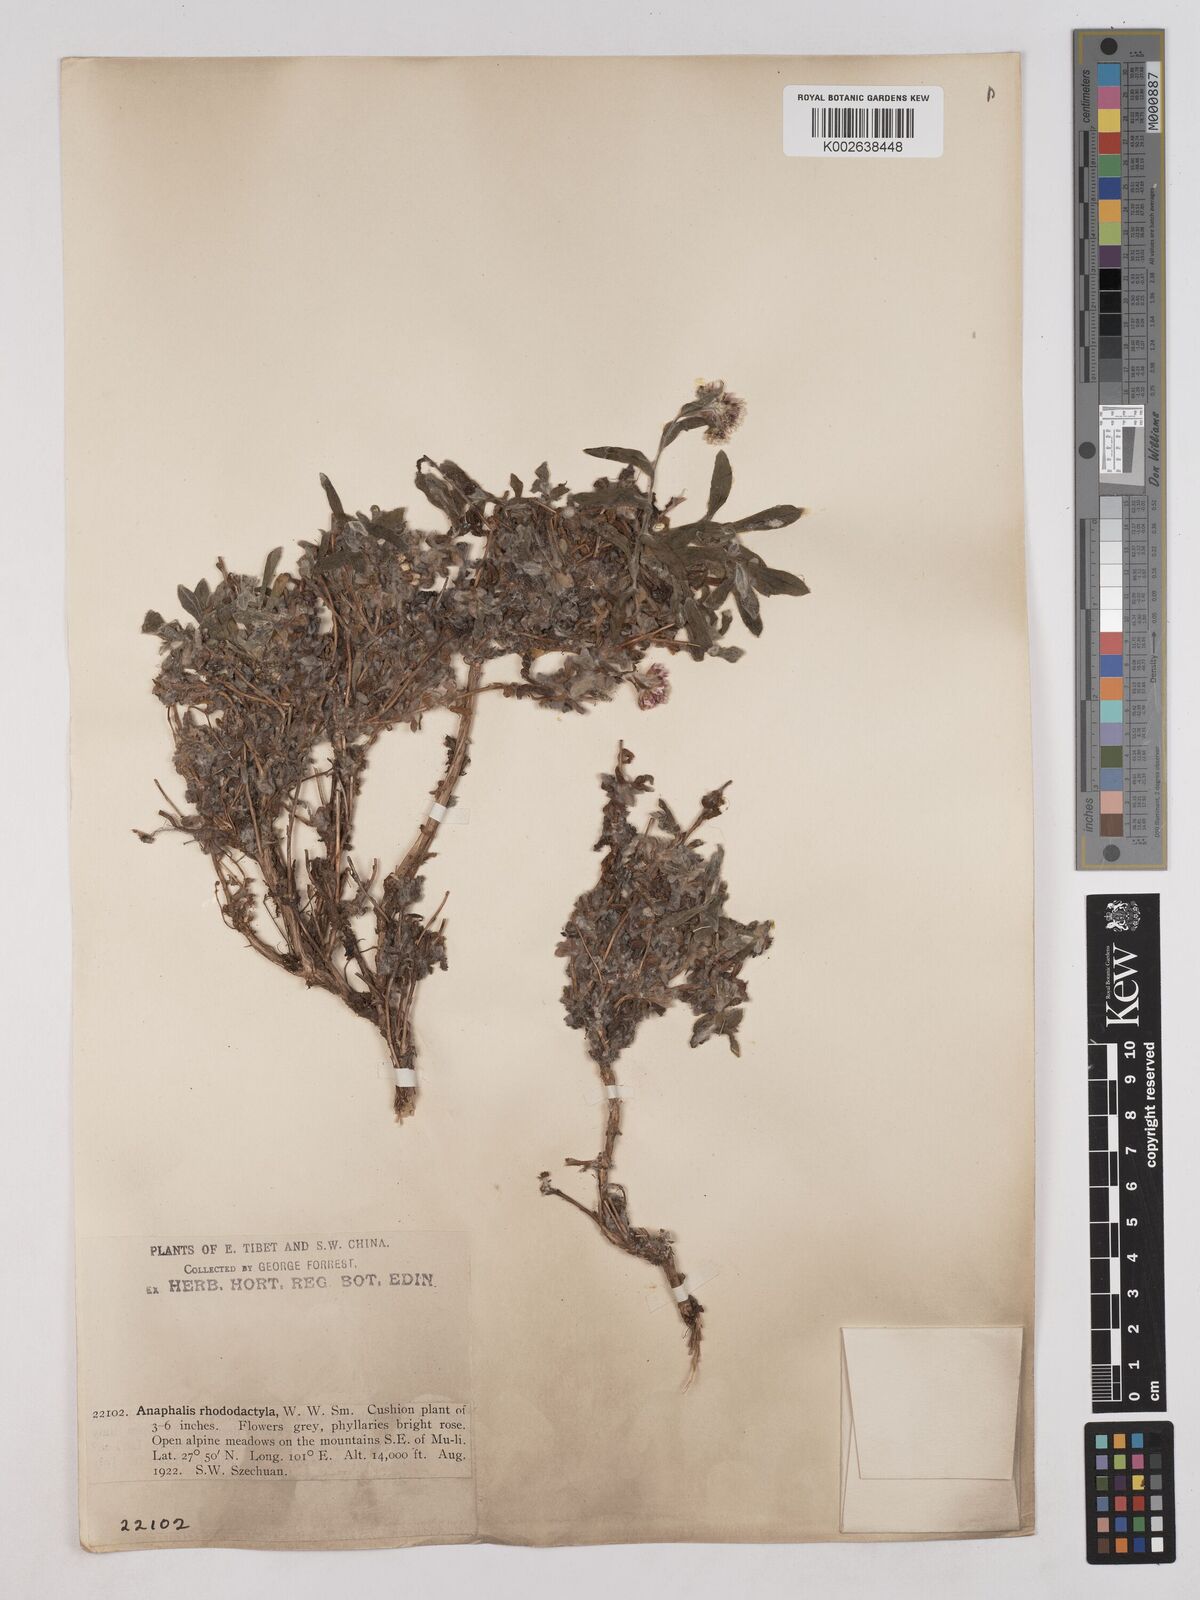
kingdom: Plantae
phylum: Tracheophyta
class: Magnoliopsida
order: Asterales
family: Asteraceae
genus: Anaphalis
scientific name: Anaphalis rhododactyla
